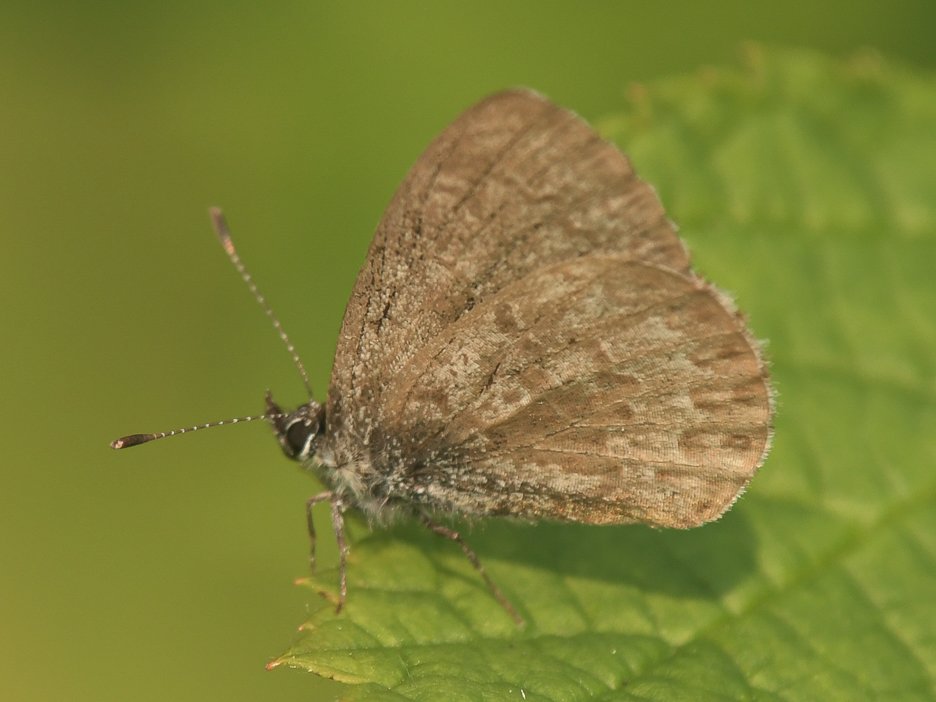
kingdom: Animalia
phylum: Arthropoda
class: Insecta
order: Lepidoptera
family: Lycaenidae
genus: Celastrina
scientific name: Celastrina lucia
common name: Northern Spring Azure
